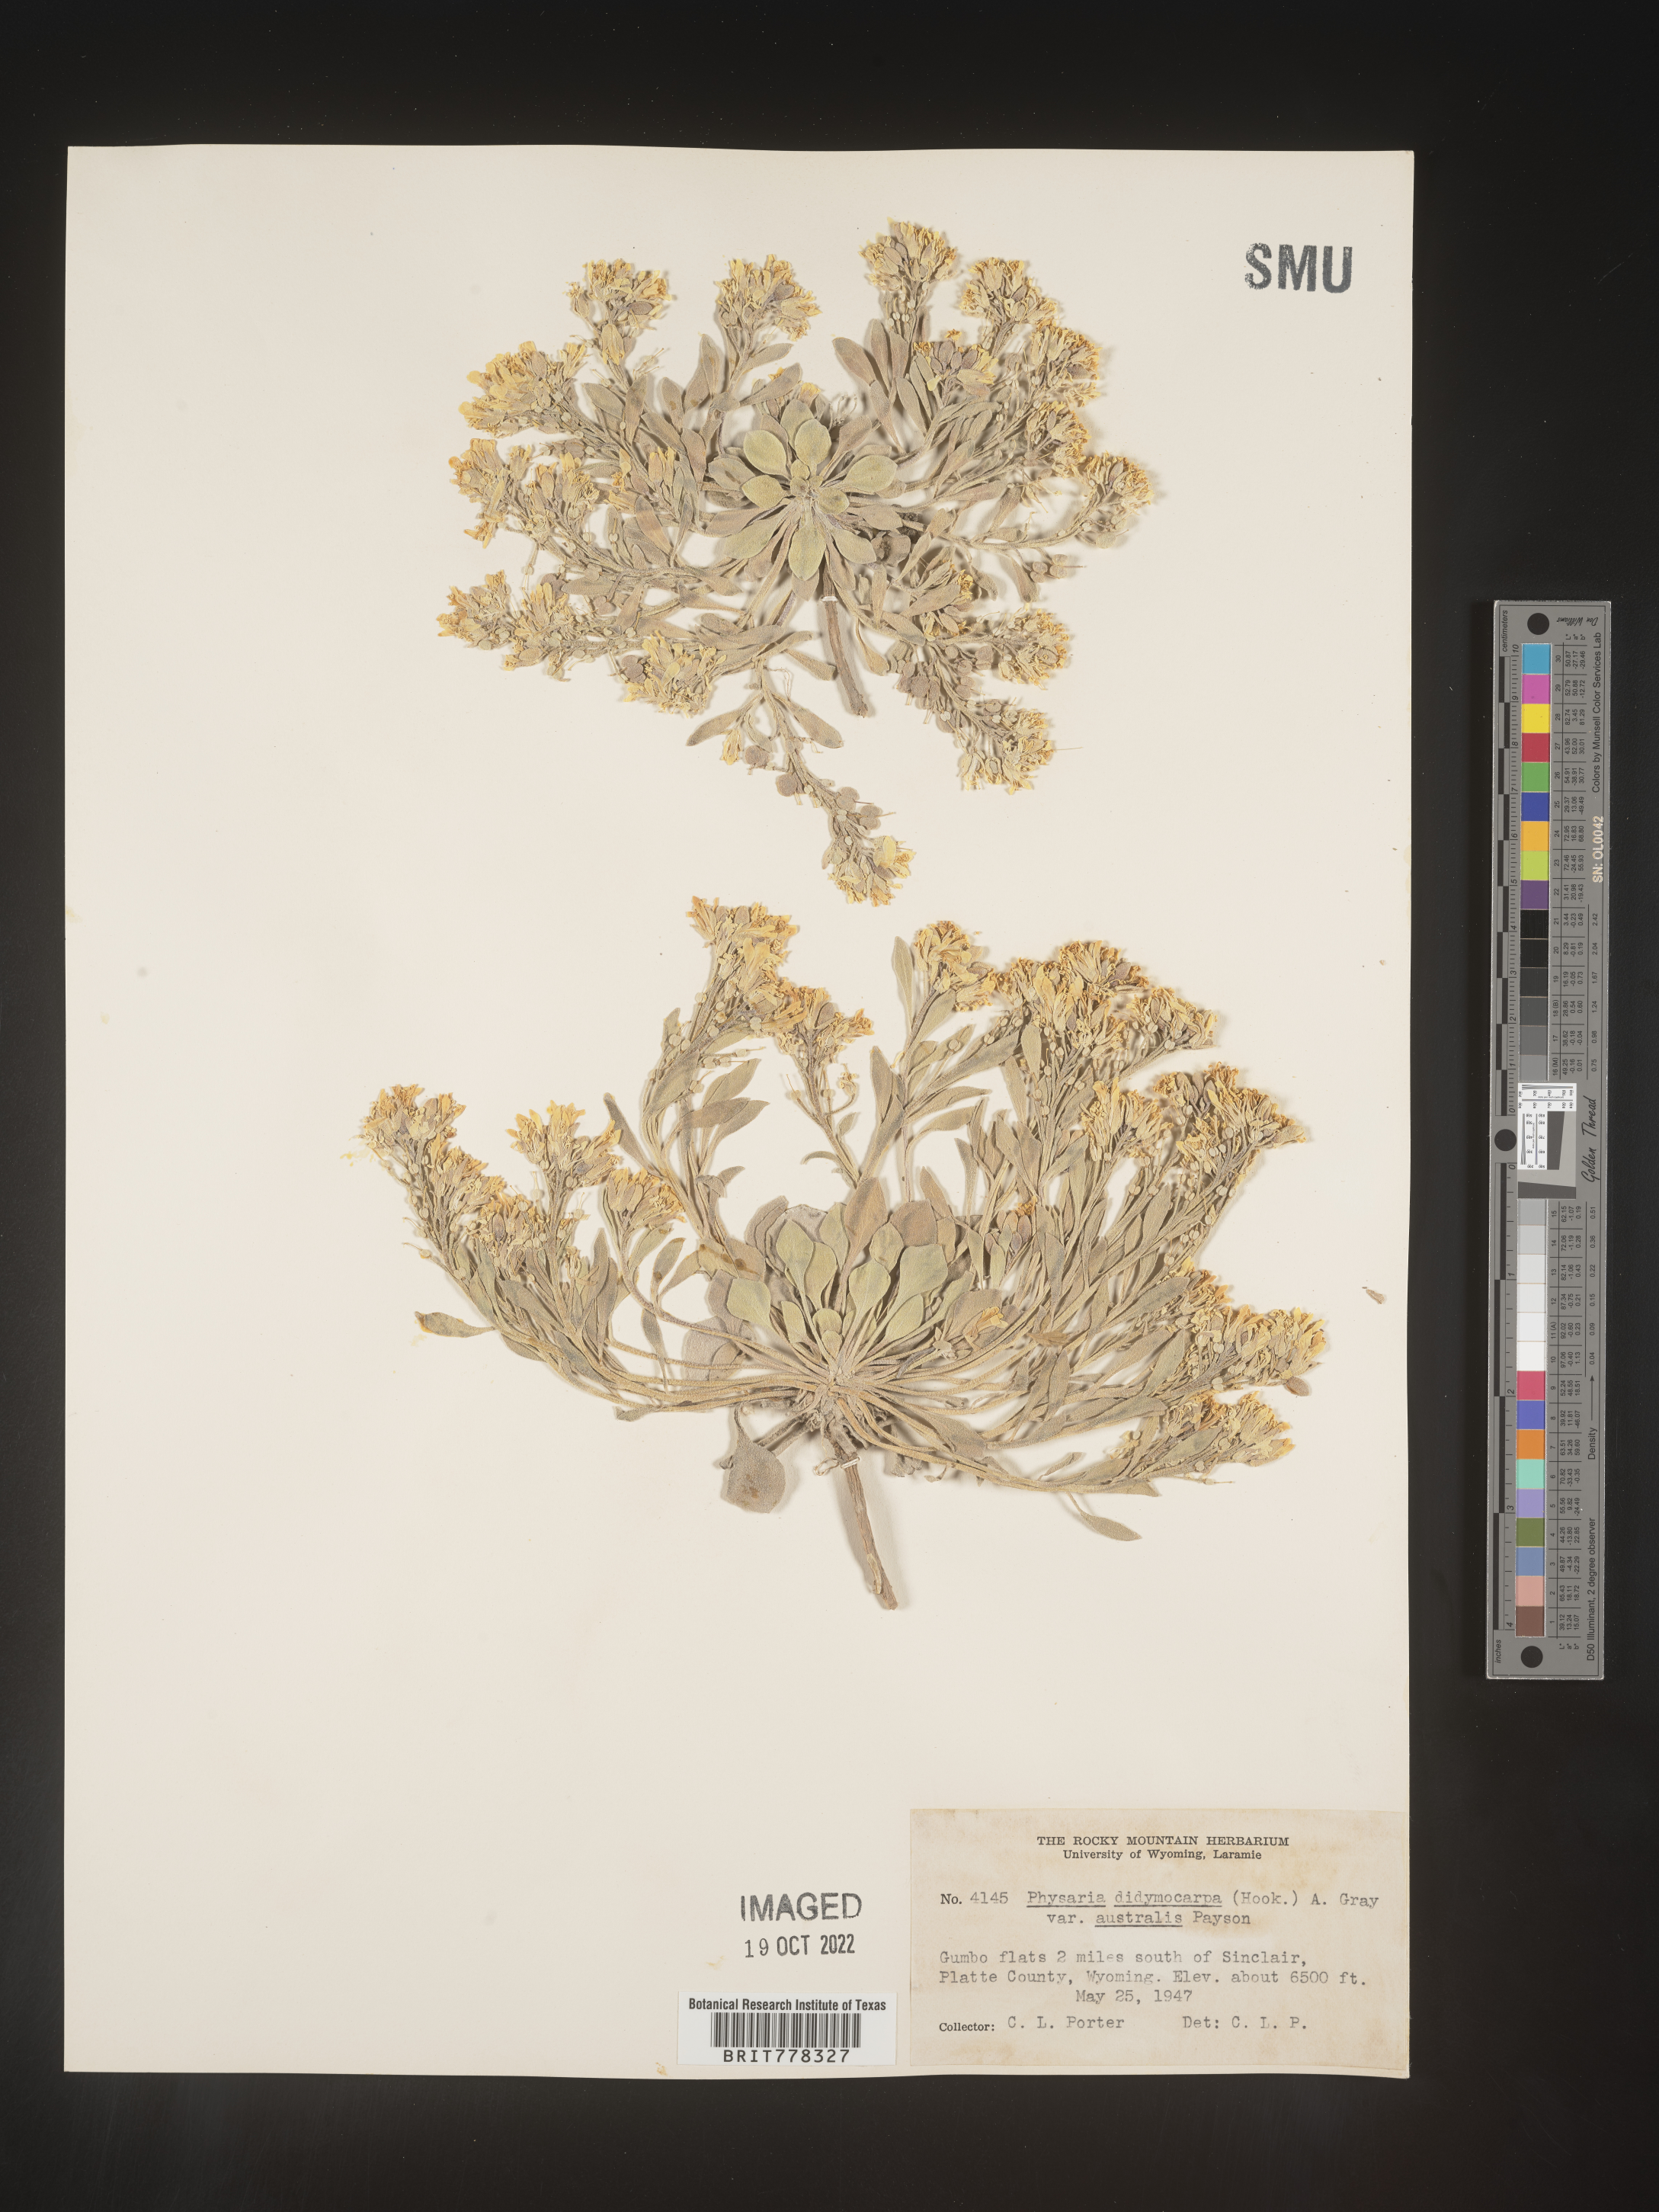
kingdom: Plantae
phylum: Tracheophyta
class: Magnoliopsida
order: Brassicales
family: Brassicaceae
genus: Physaria
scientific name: Physaria
